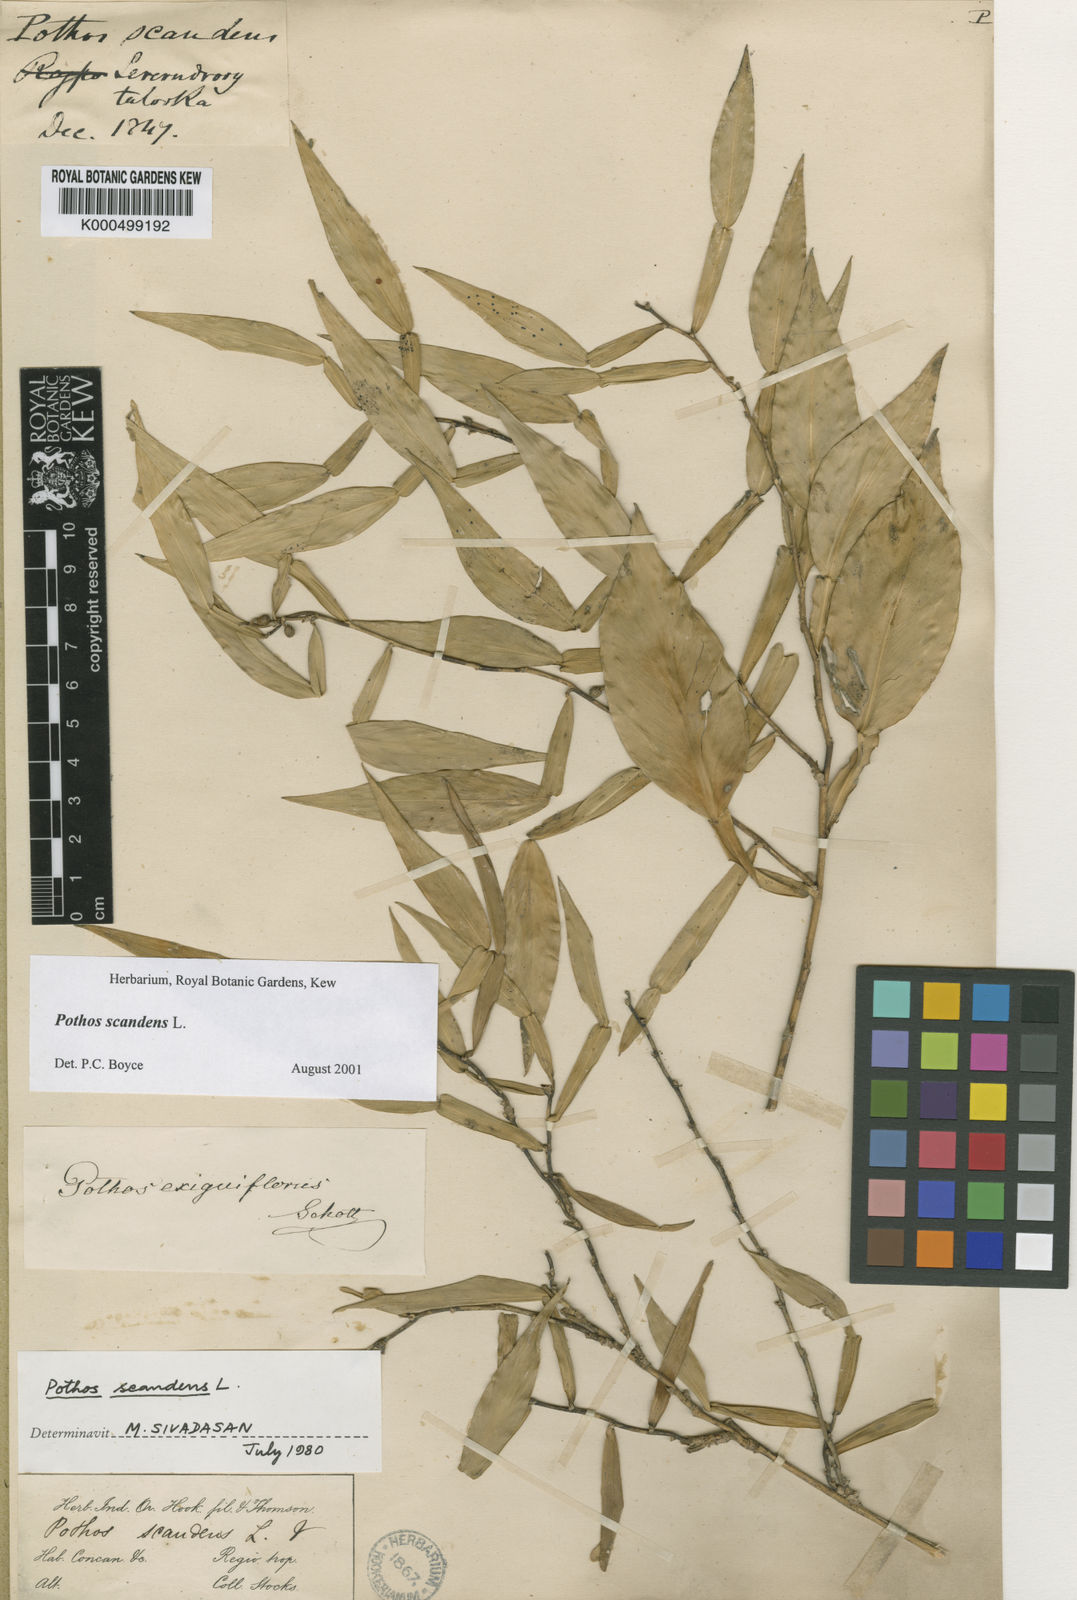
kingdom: Plantae
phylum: Tracheophyta
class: Liliopsida
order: Alismatales
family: Araceae
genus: Pothos
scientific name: Pothos scandens
